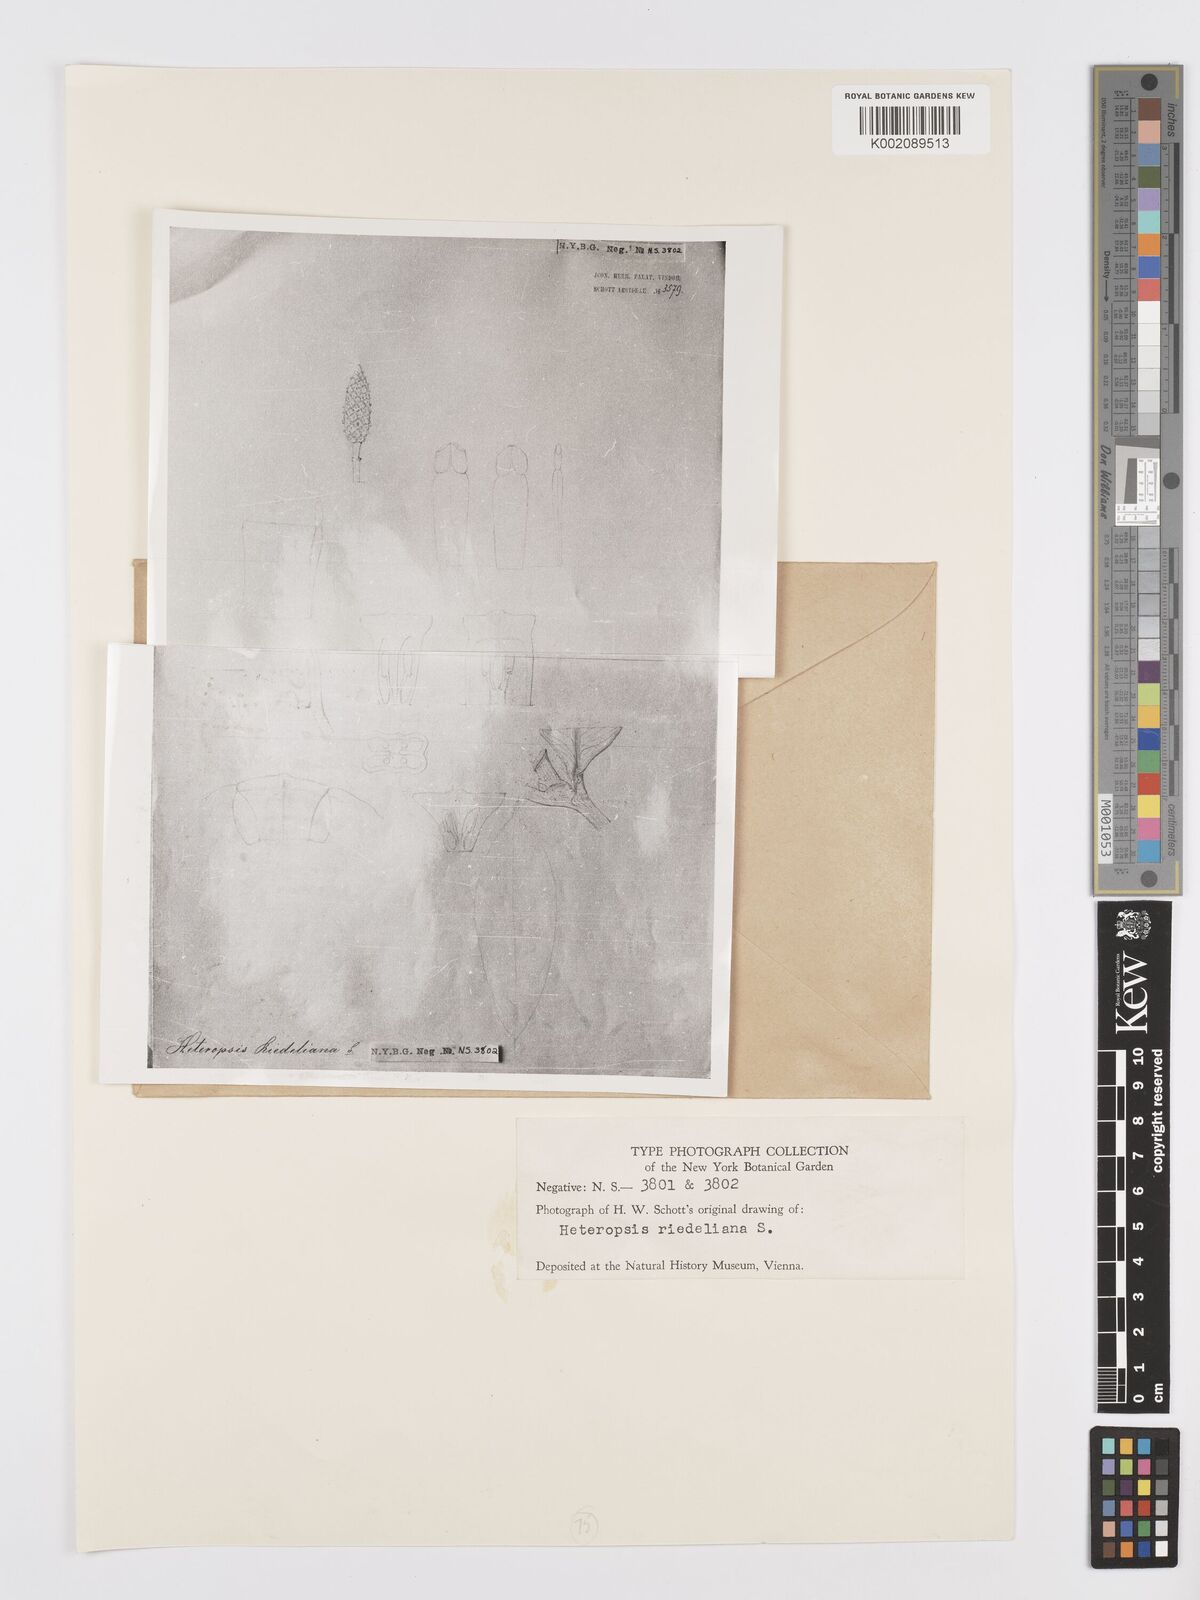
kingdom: Plantae
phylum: Tracheophyta
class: Liliopsida
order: Alismatales
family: Araceae
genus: Heteropsis
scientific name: Heteropsis salicifolia
